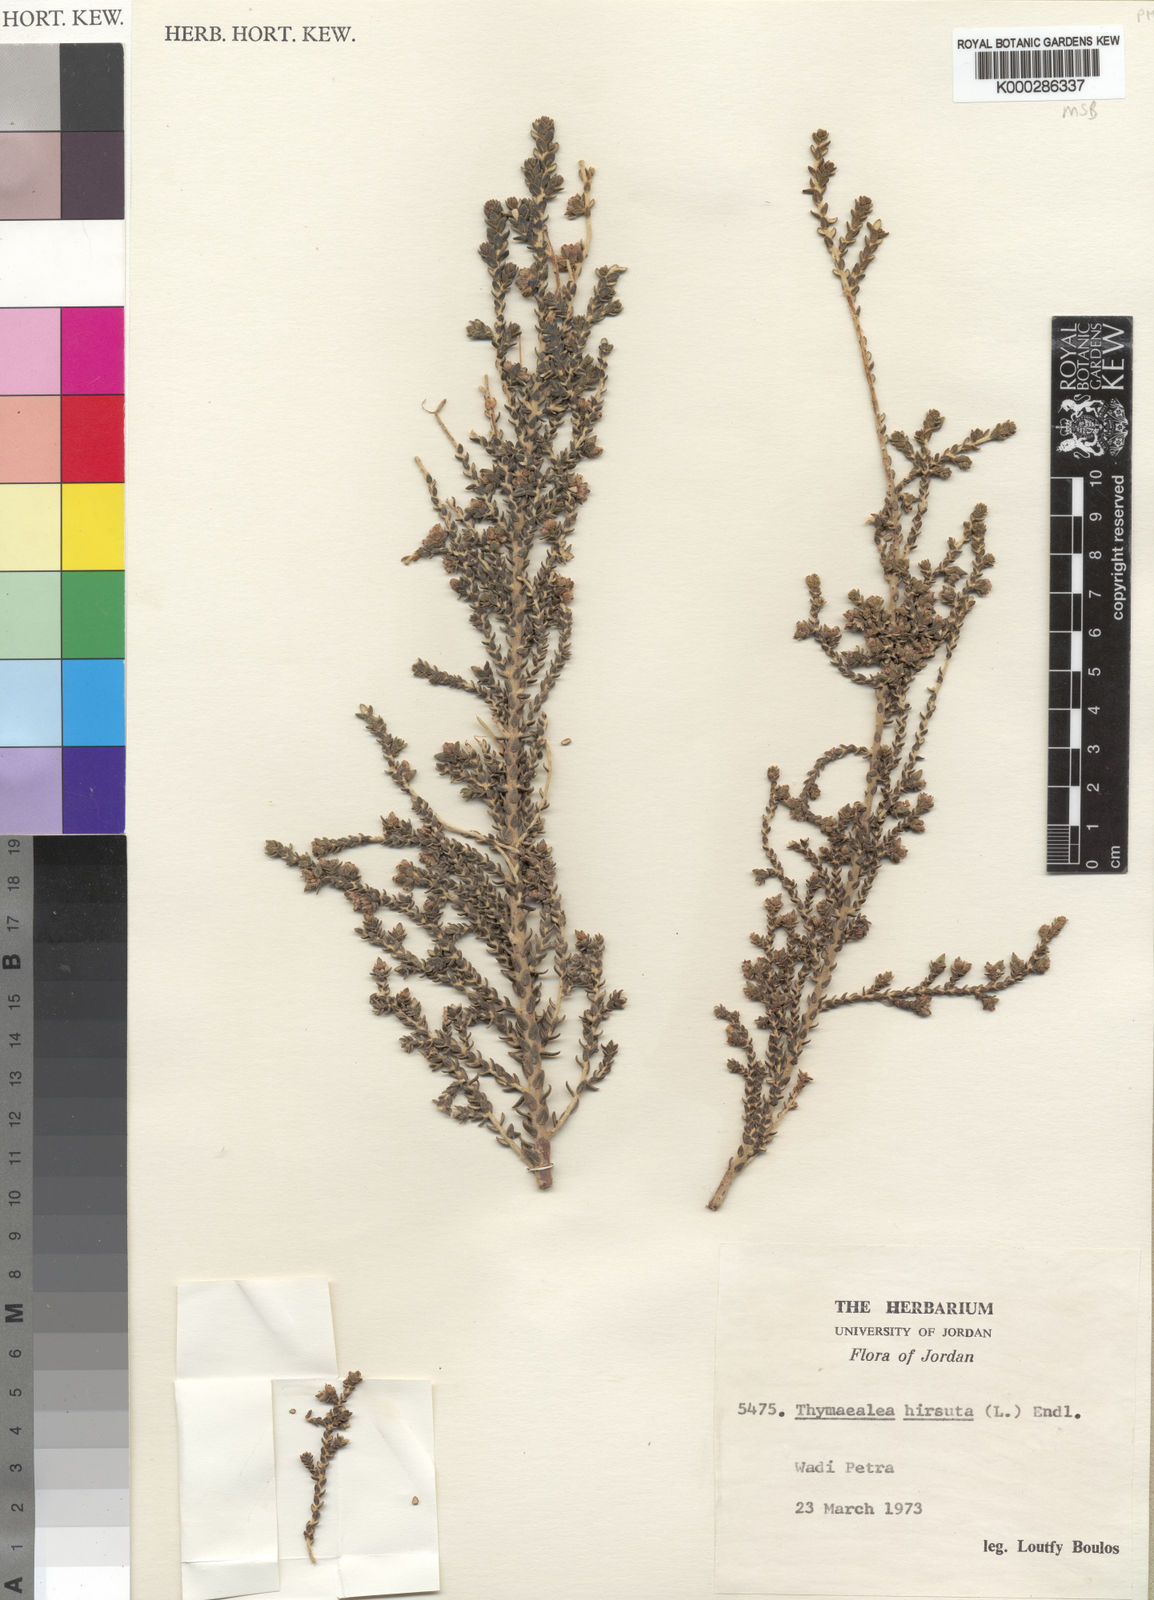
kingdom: Plantae
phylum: Tracheophyta
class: Magnoliopsida
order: Malvales
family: Thymelaeaceae
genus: Thymelaea
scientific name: Thymelaea hirsuta
